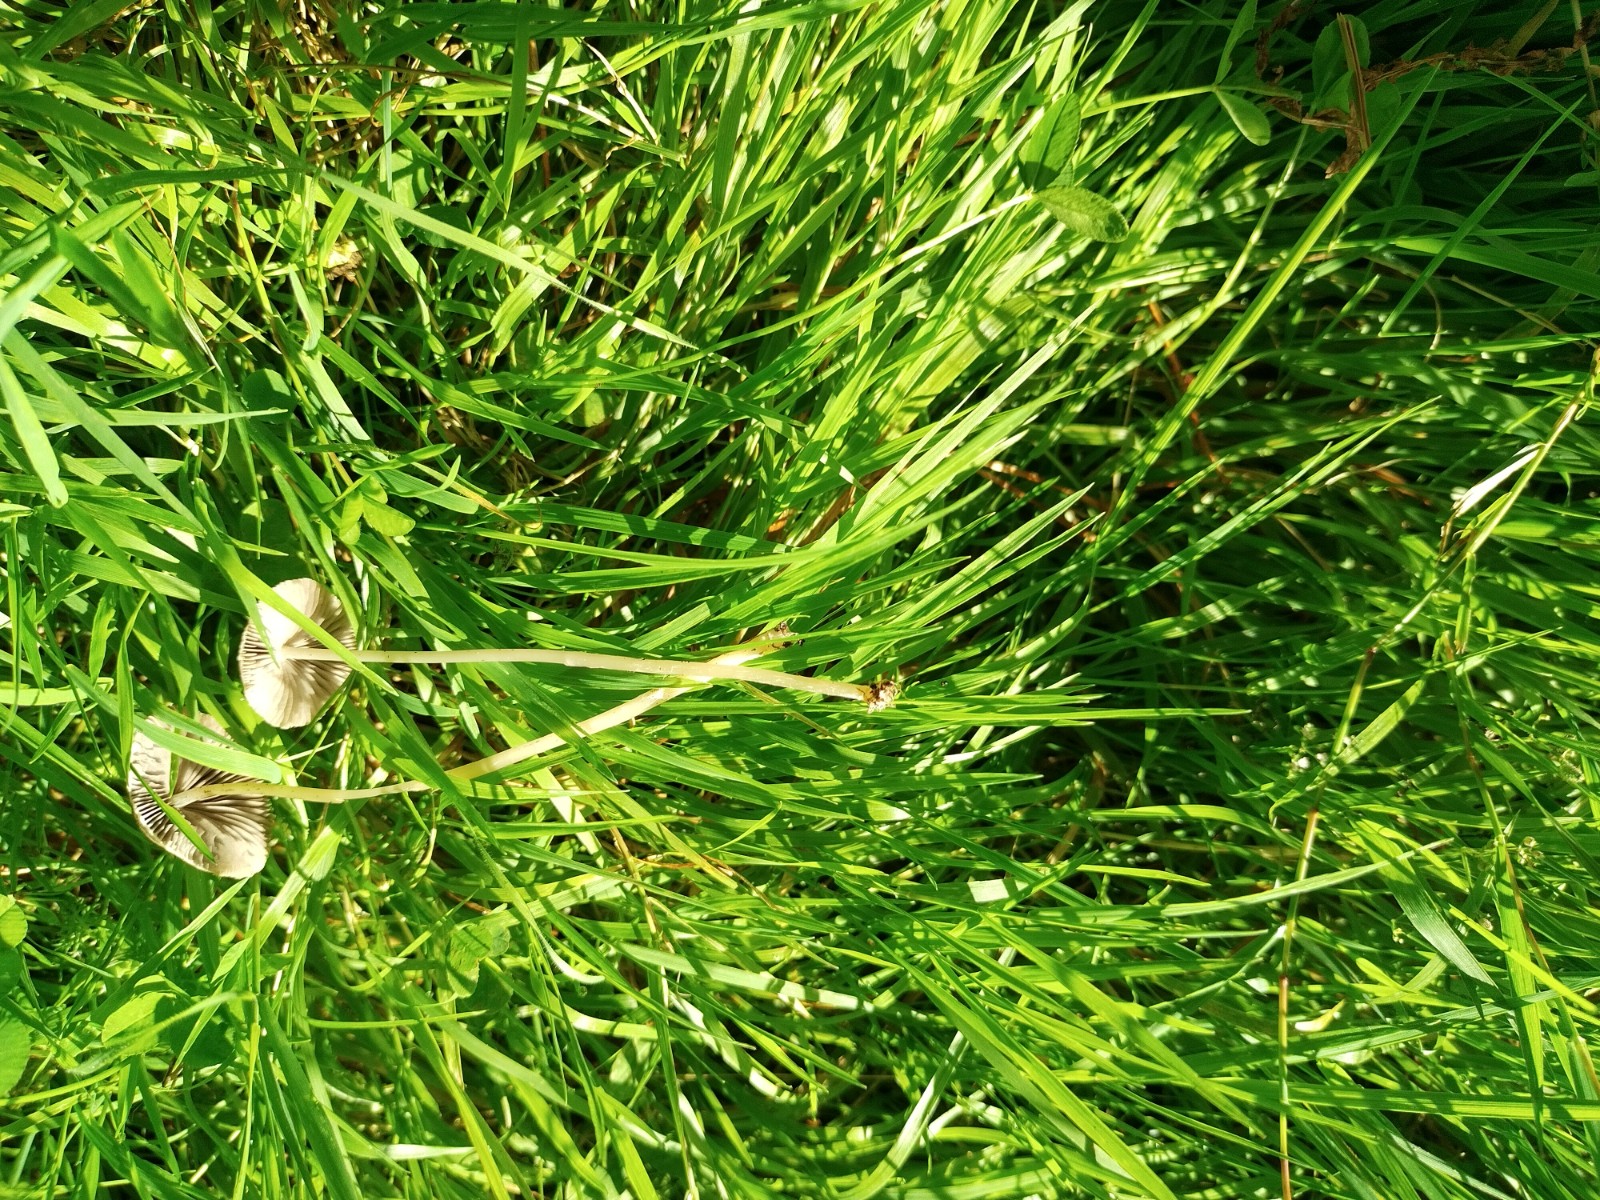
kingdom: Fungi
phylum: Basidiomycota
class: Agaricomycetes
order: Agaricales
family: Psathyrellaceae
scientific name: Psathyrellaceae
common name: mørkhatfamilien
